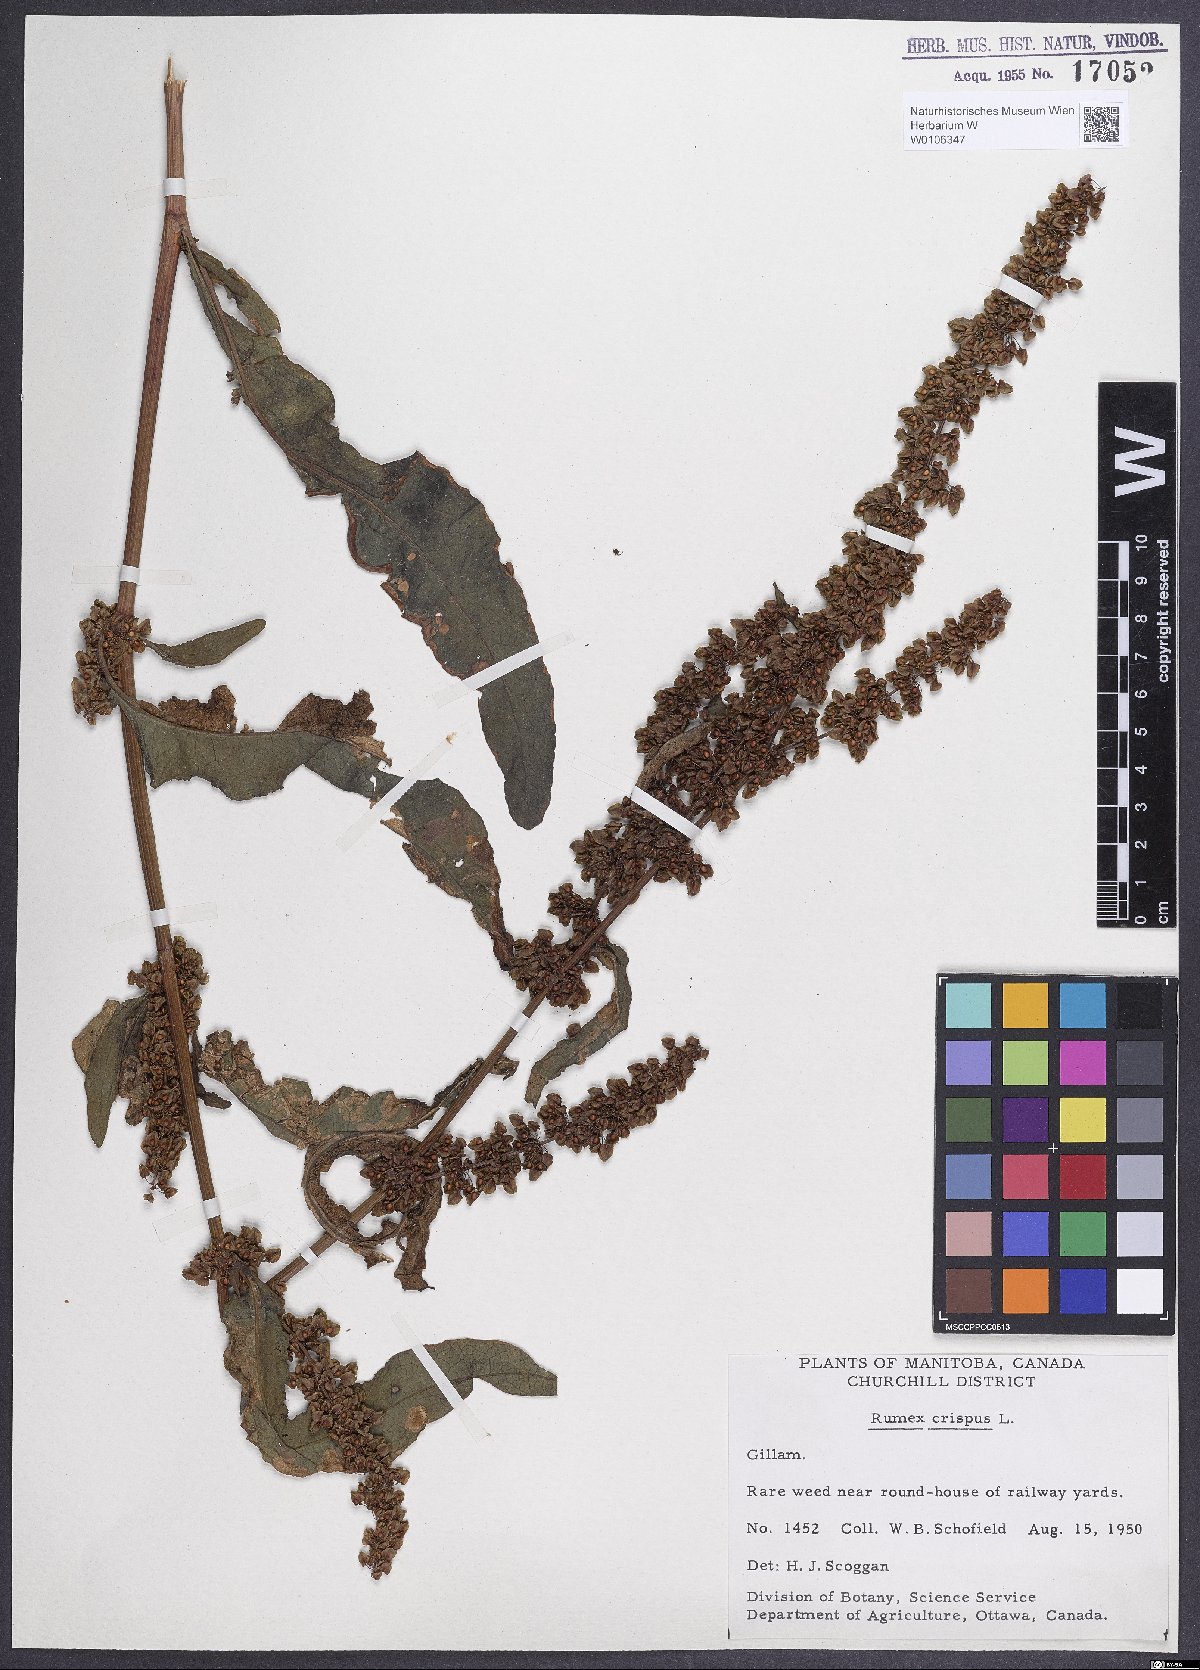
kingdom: Plantae
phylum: Tracheophyta
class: Magnoliopsida
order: Caryophyllales
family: Polygonaceae
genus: Rumex
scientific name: Rumex crispus
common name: Curled dock
